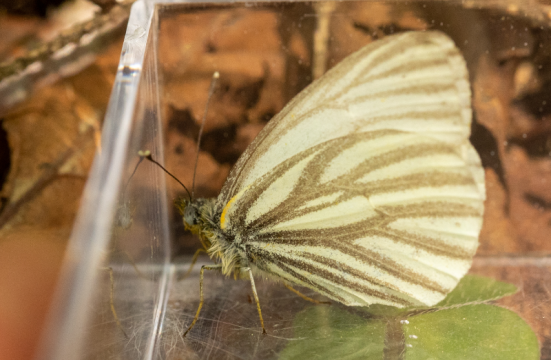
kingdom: Animalia
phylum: Arthropoda
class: Insecta
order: Lepidoptera
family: Pieridae
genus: Pieris
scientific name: Pieris oleracea
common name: Mustard White
